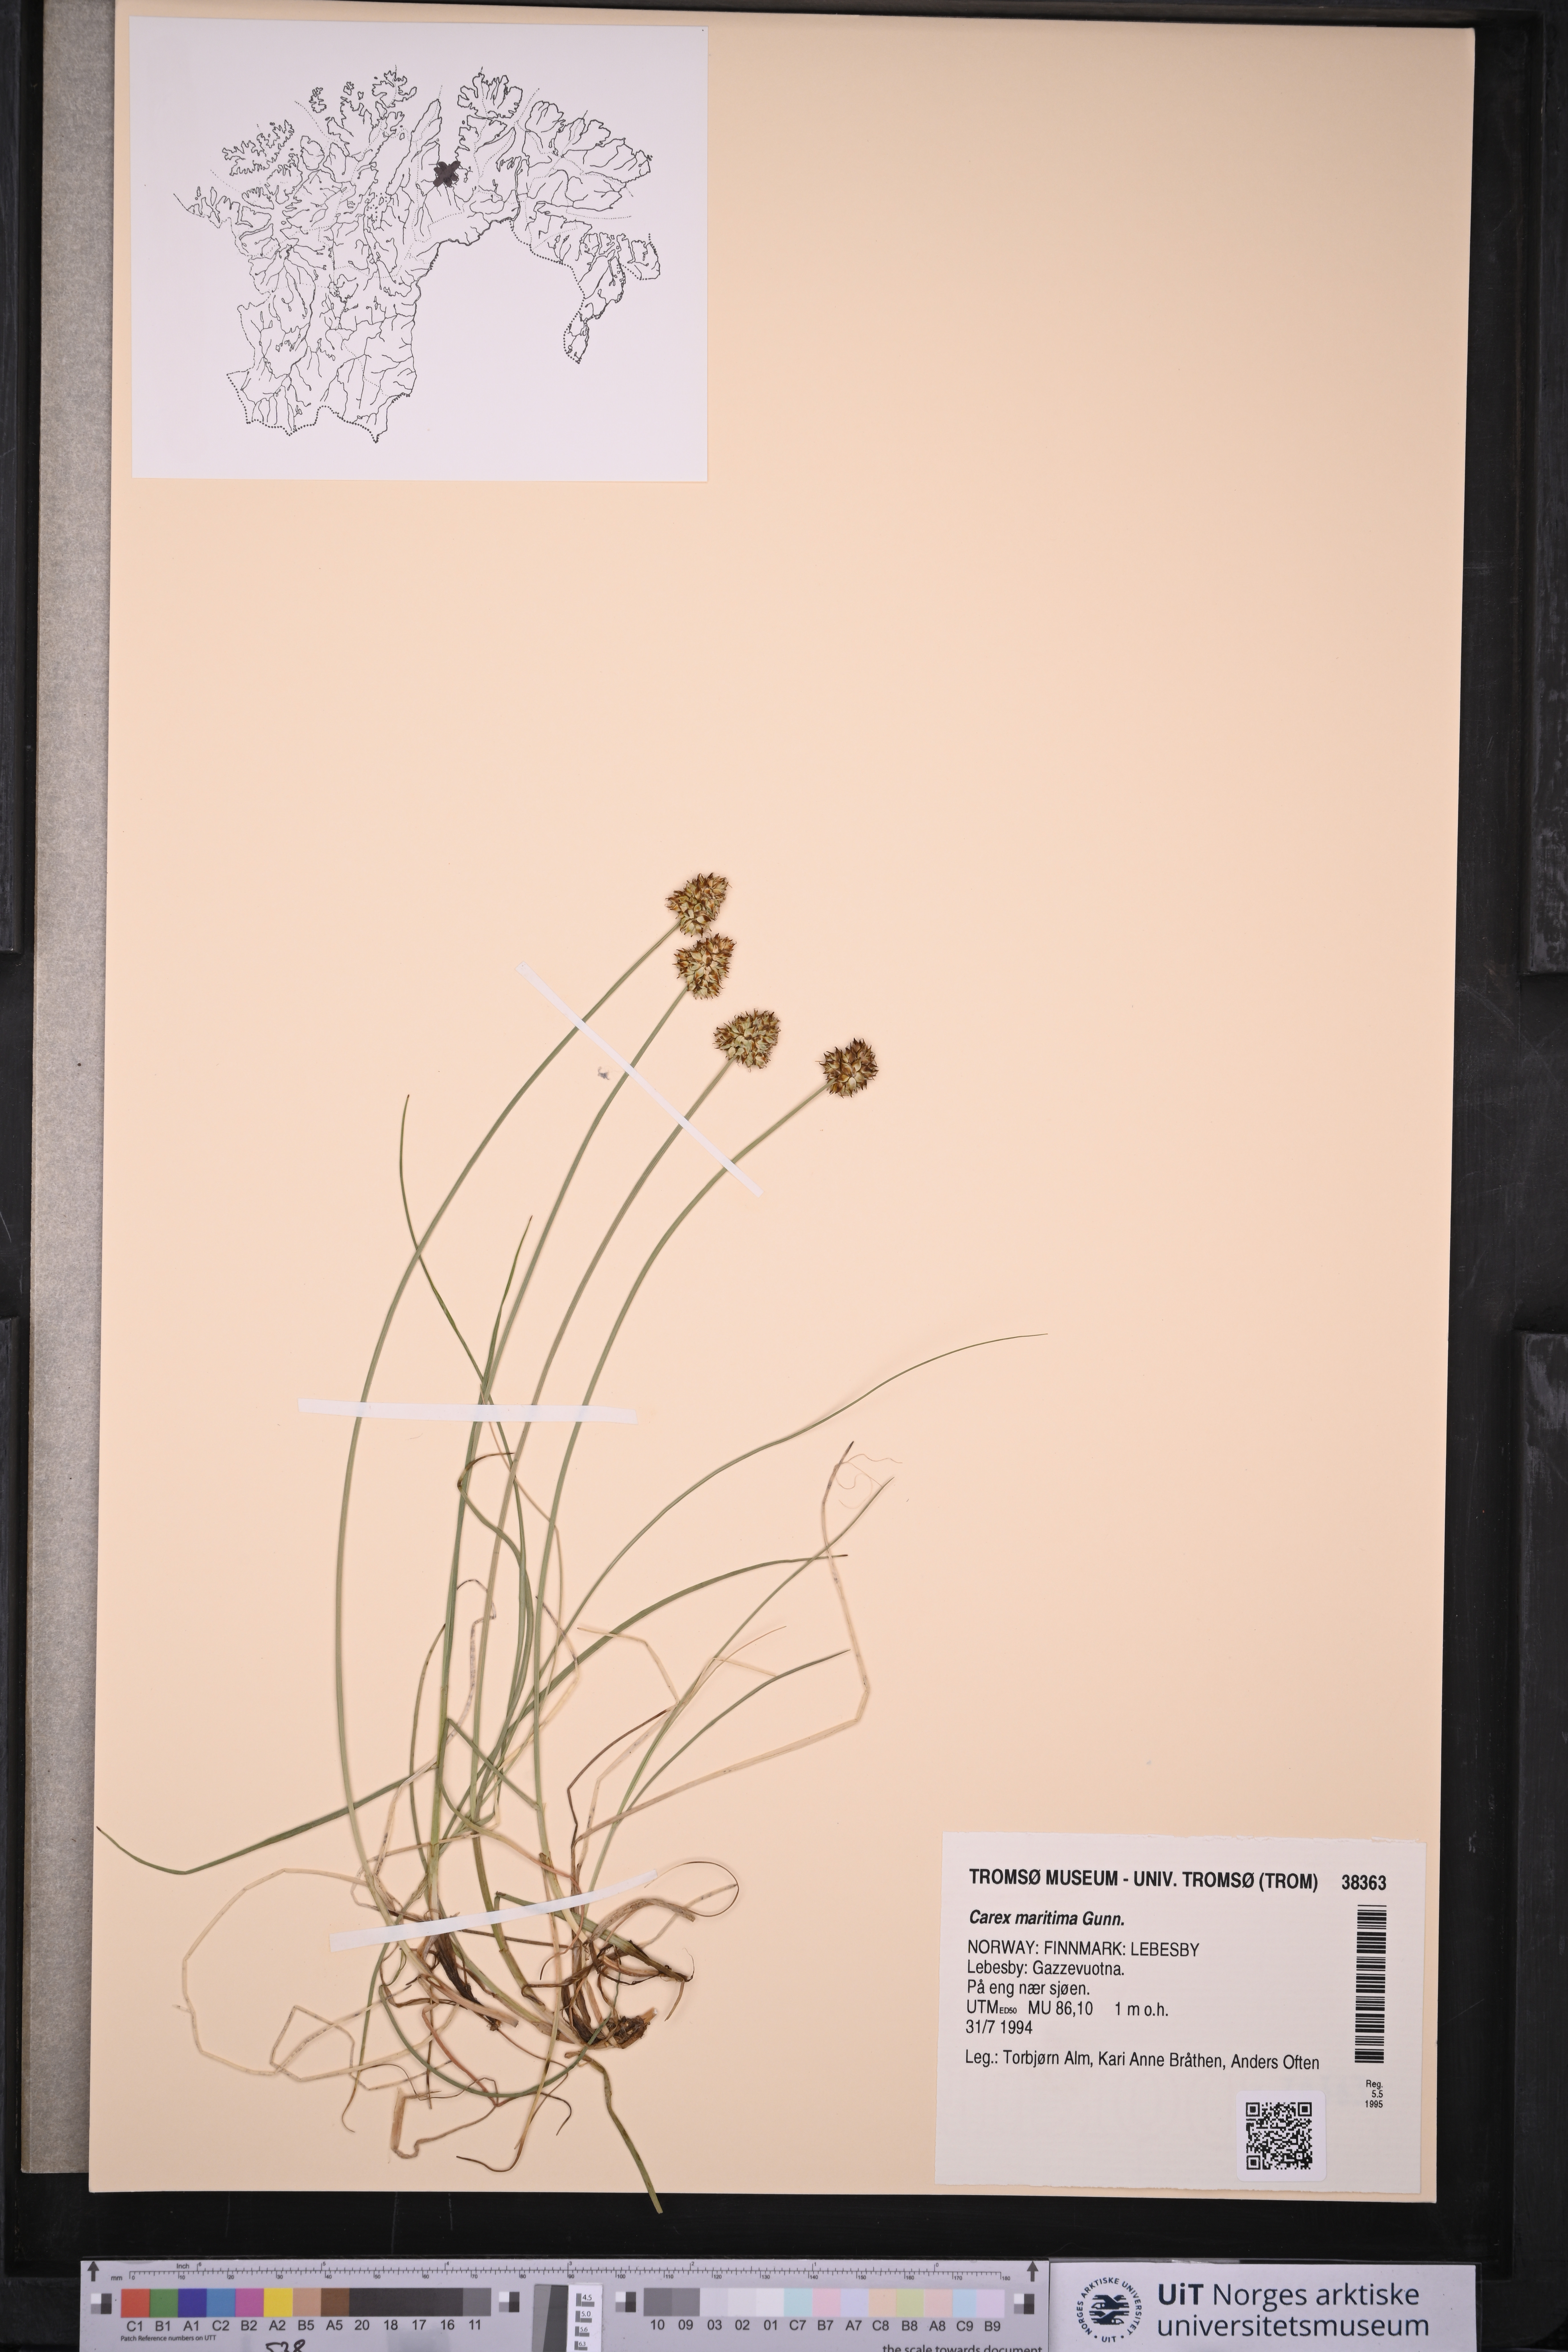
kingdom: Plantae
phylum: Tracheophyta
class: Liliopsida
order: Poales
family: Cyperaceae
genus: Carex
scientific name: Carex maritima
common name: Curved sedge
